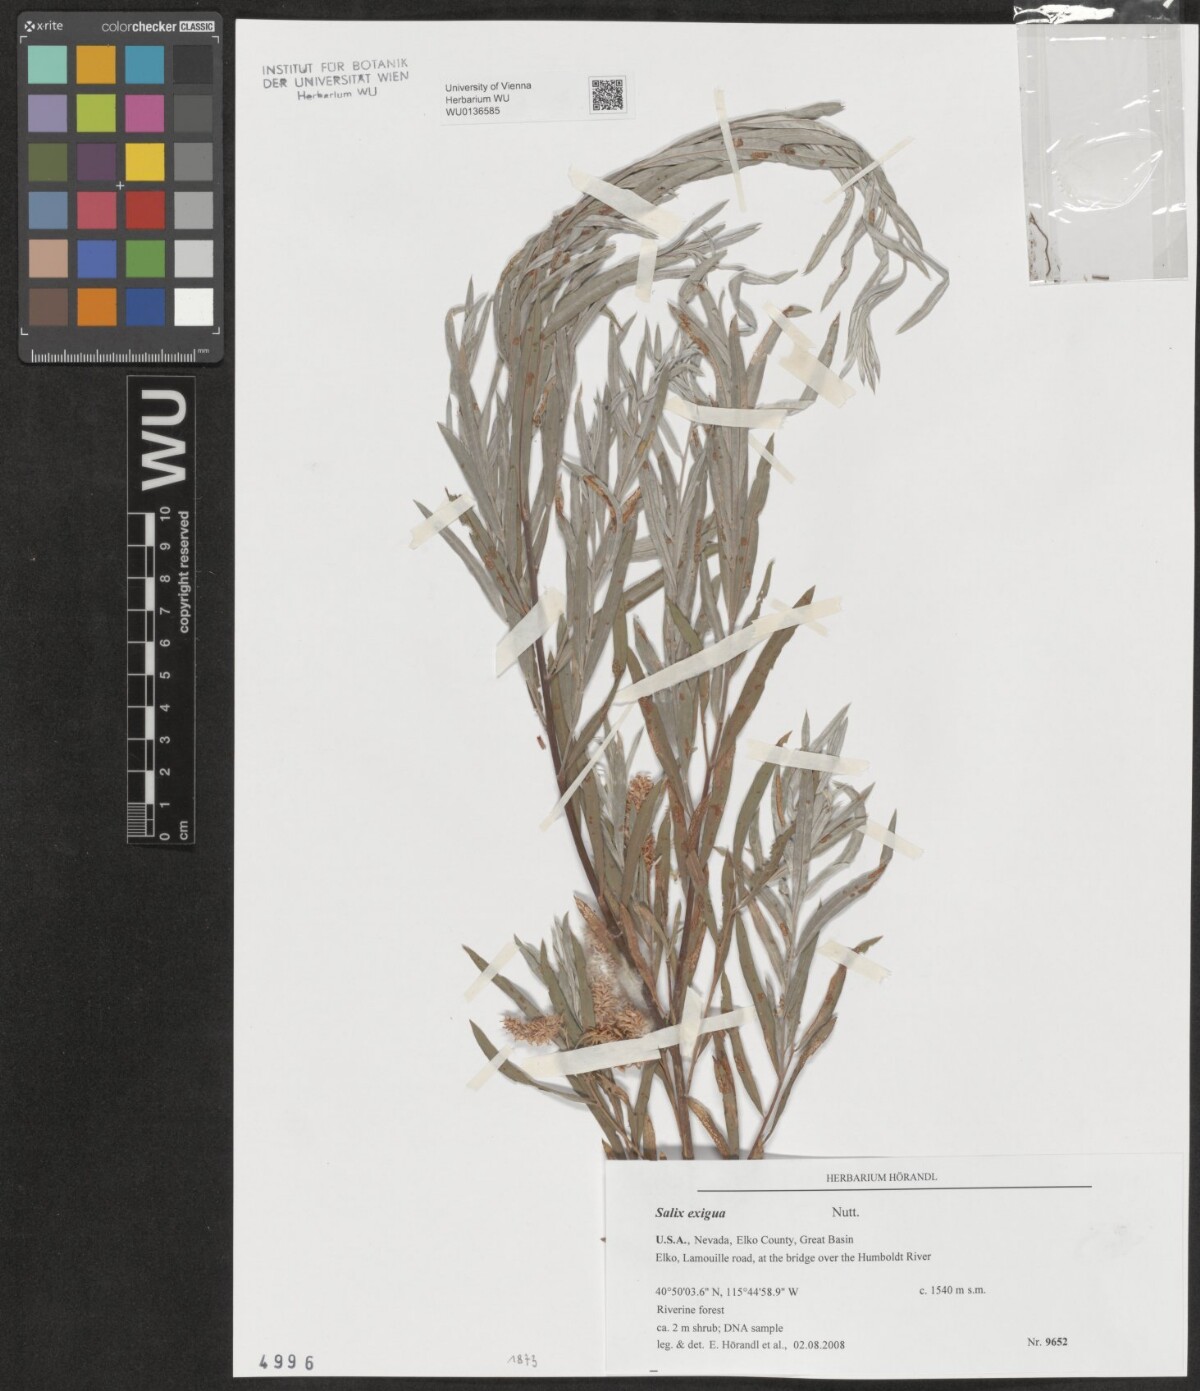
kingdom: Plantae
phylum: Tracheophyta
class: Magnoliopsida
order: Malpighiales
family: Salicaceae
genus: Salix
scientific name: Salix exigua
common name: Coyote willow
